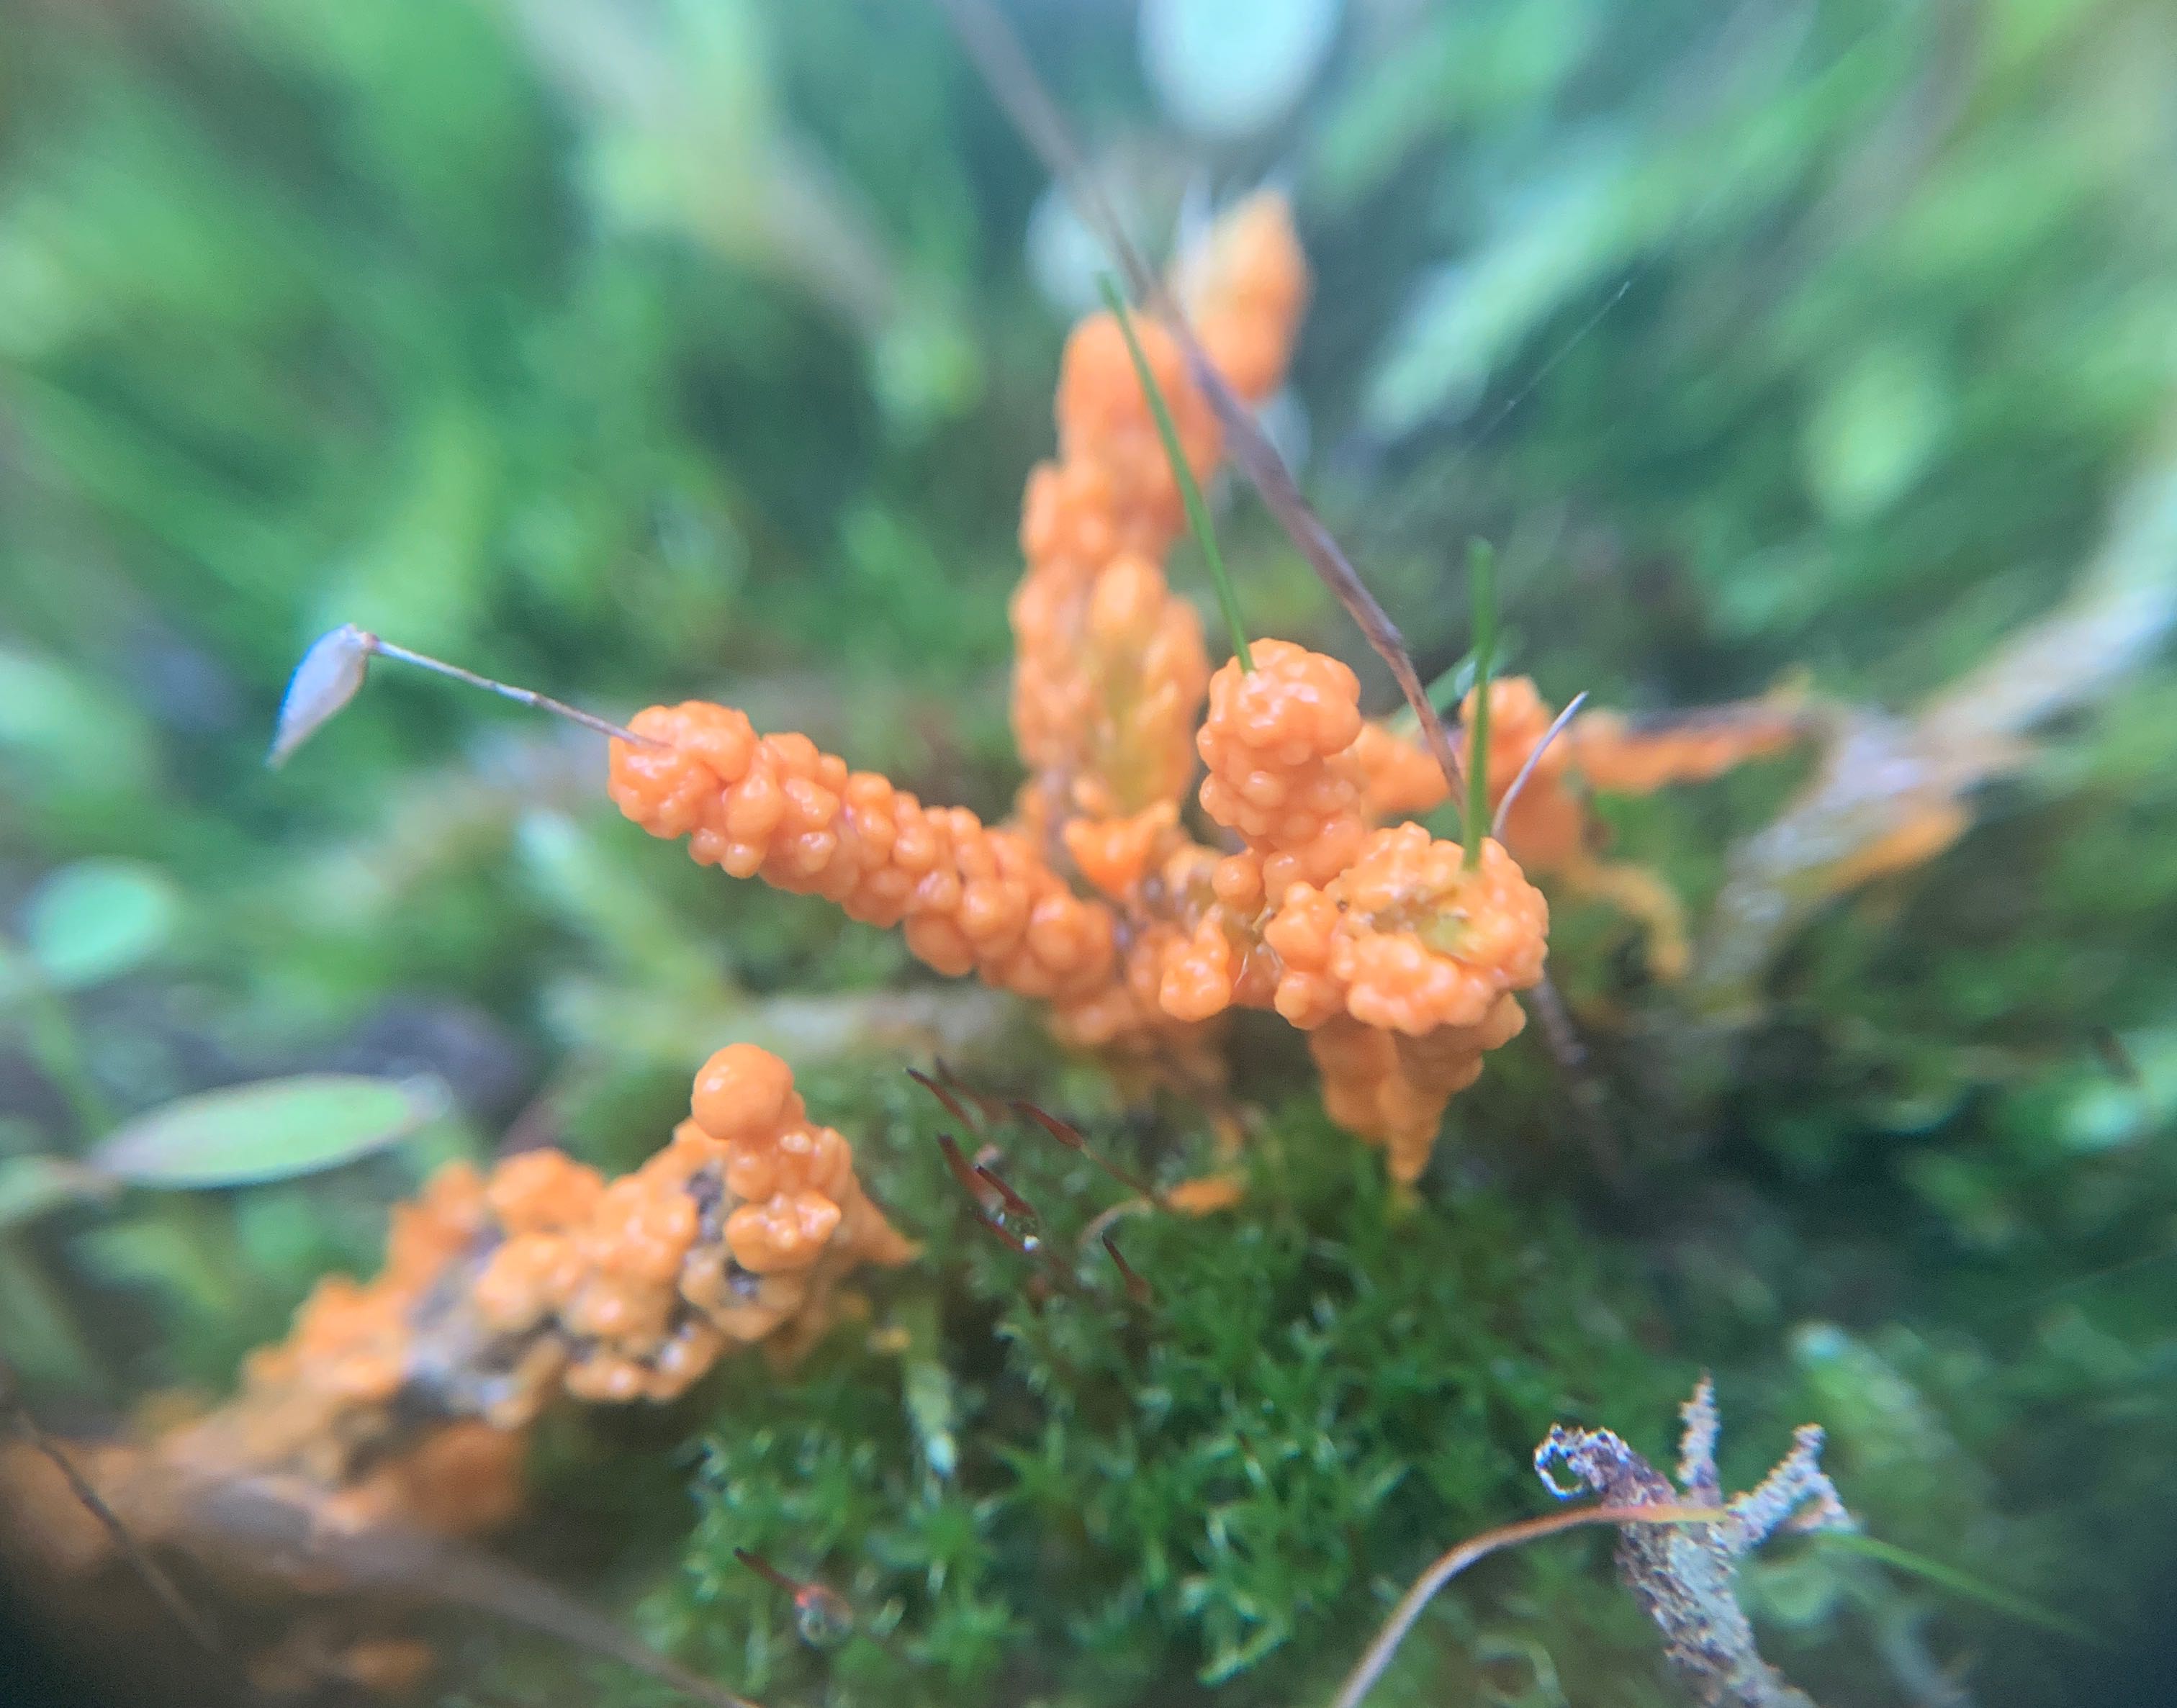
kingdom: Protozoa
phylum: Mycetozoa
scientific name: Mycetozoa
